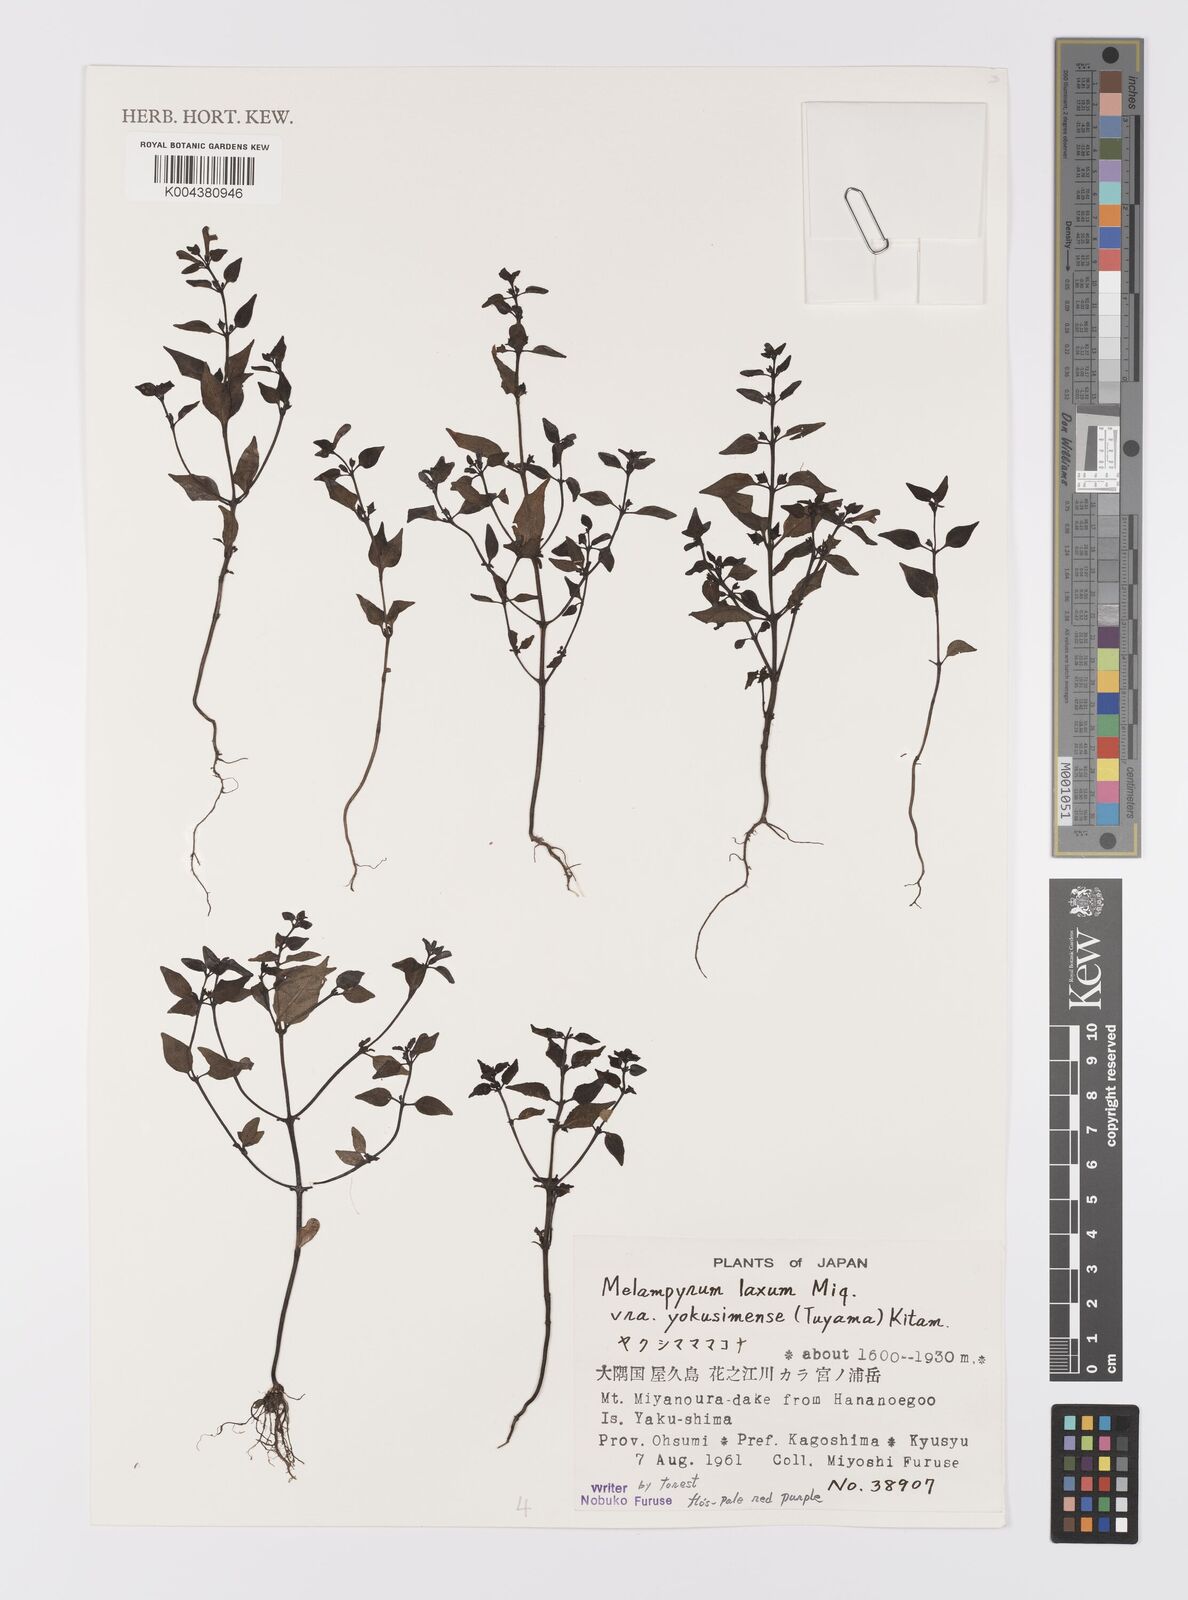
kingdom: Plantae
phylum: Tracheophyta
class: Magnoliopsida
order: Lamiales
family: Orobanchaceae
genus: Melampyrum
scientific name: Melampyrum laxum
